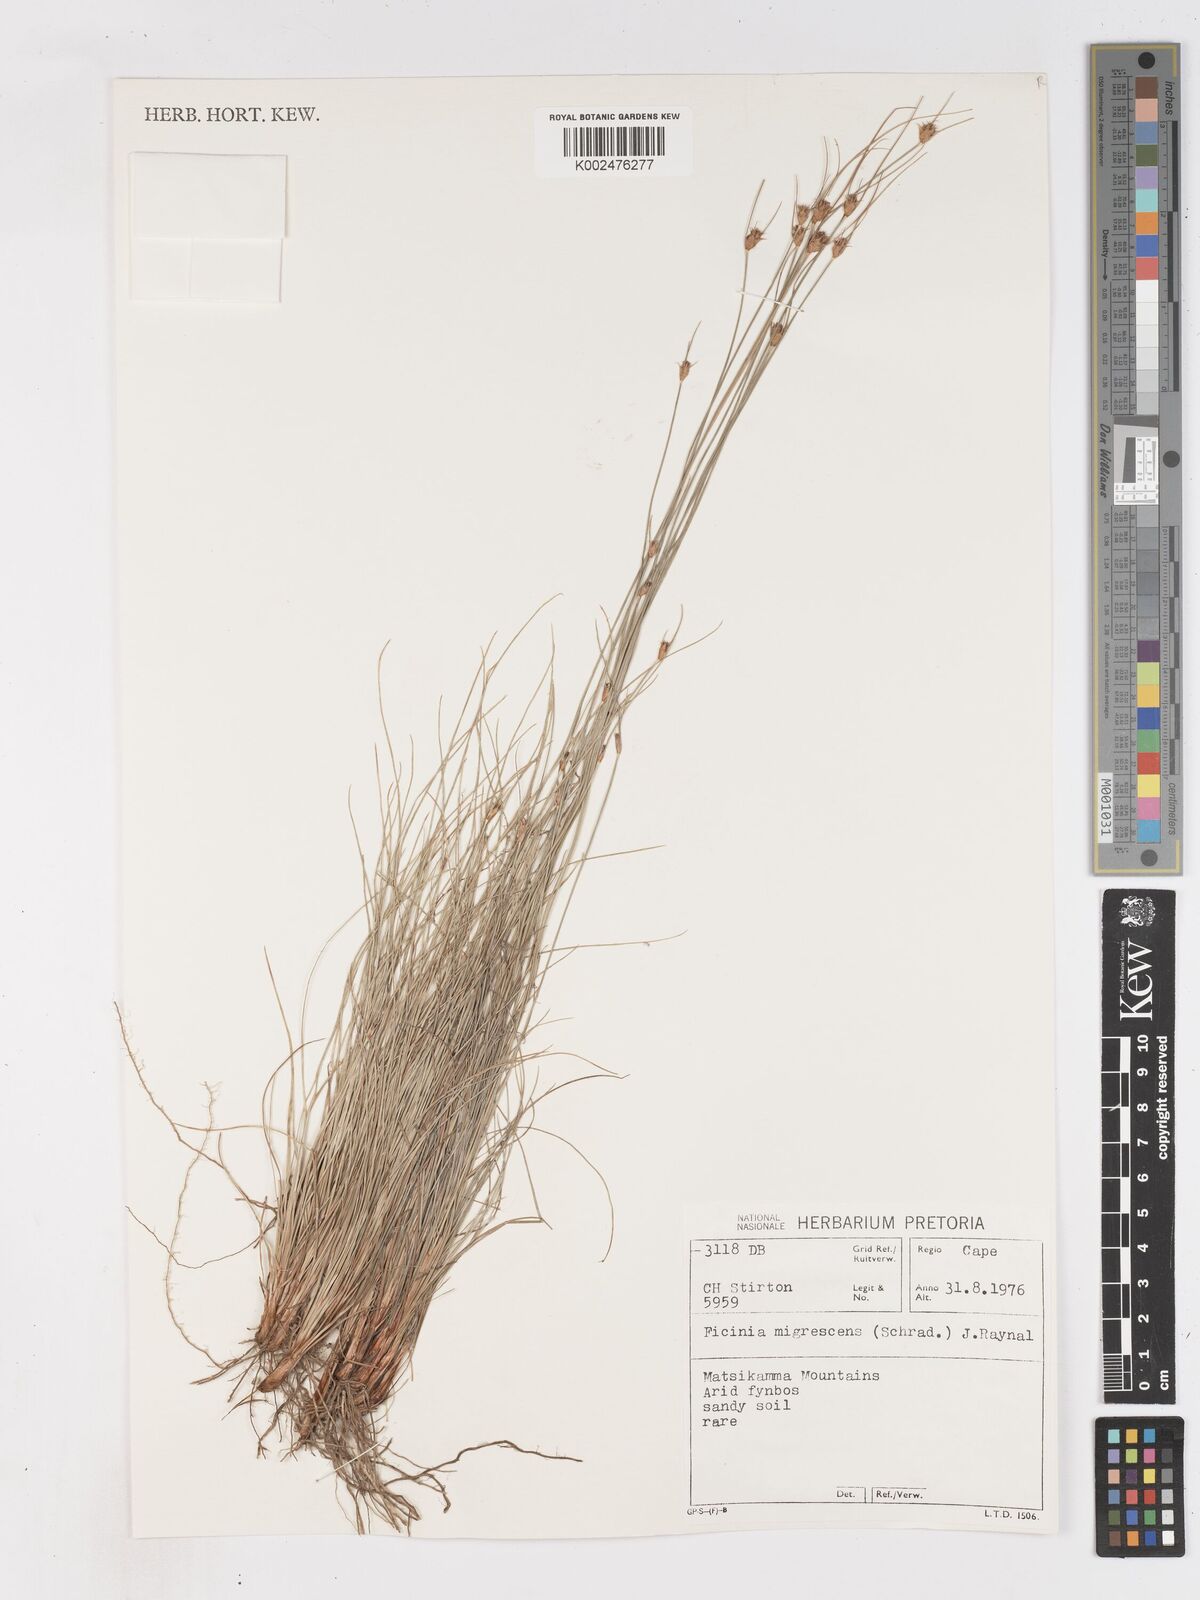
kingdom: Plantae
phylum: Tracheophyta
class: Liliopsida
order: Poales
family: Cyperaceae
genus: Ficinia
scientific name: Ficinia nigrescens
